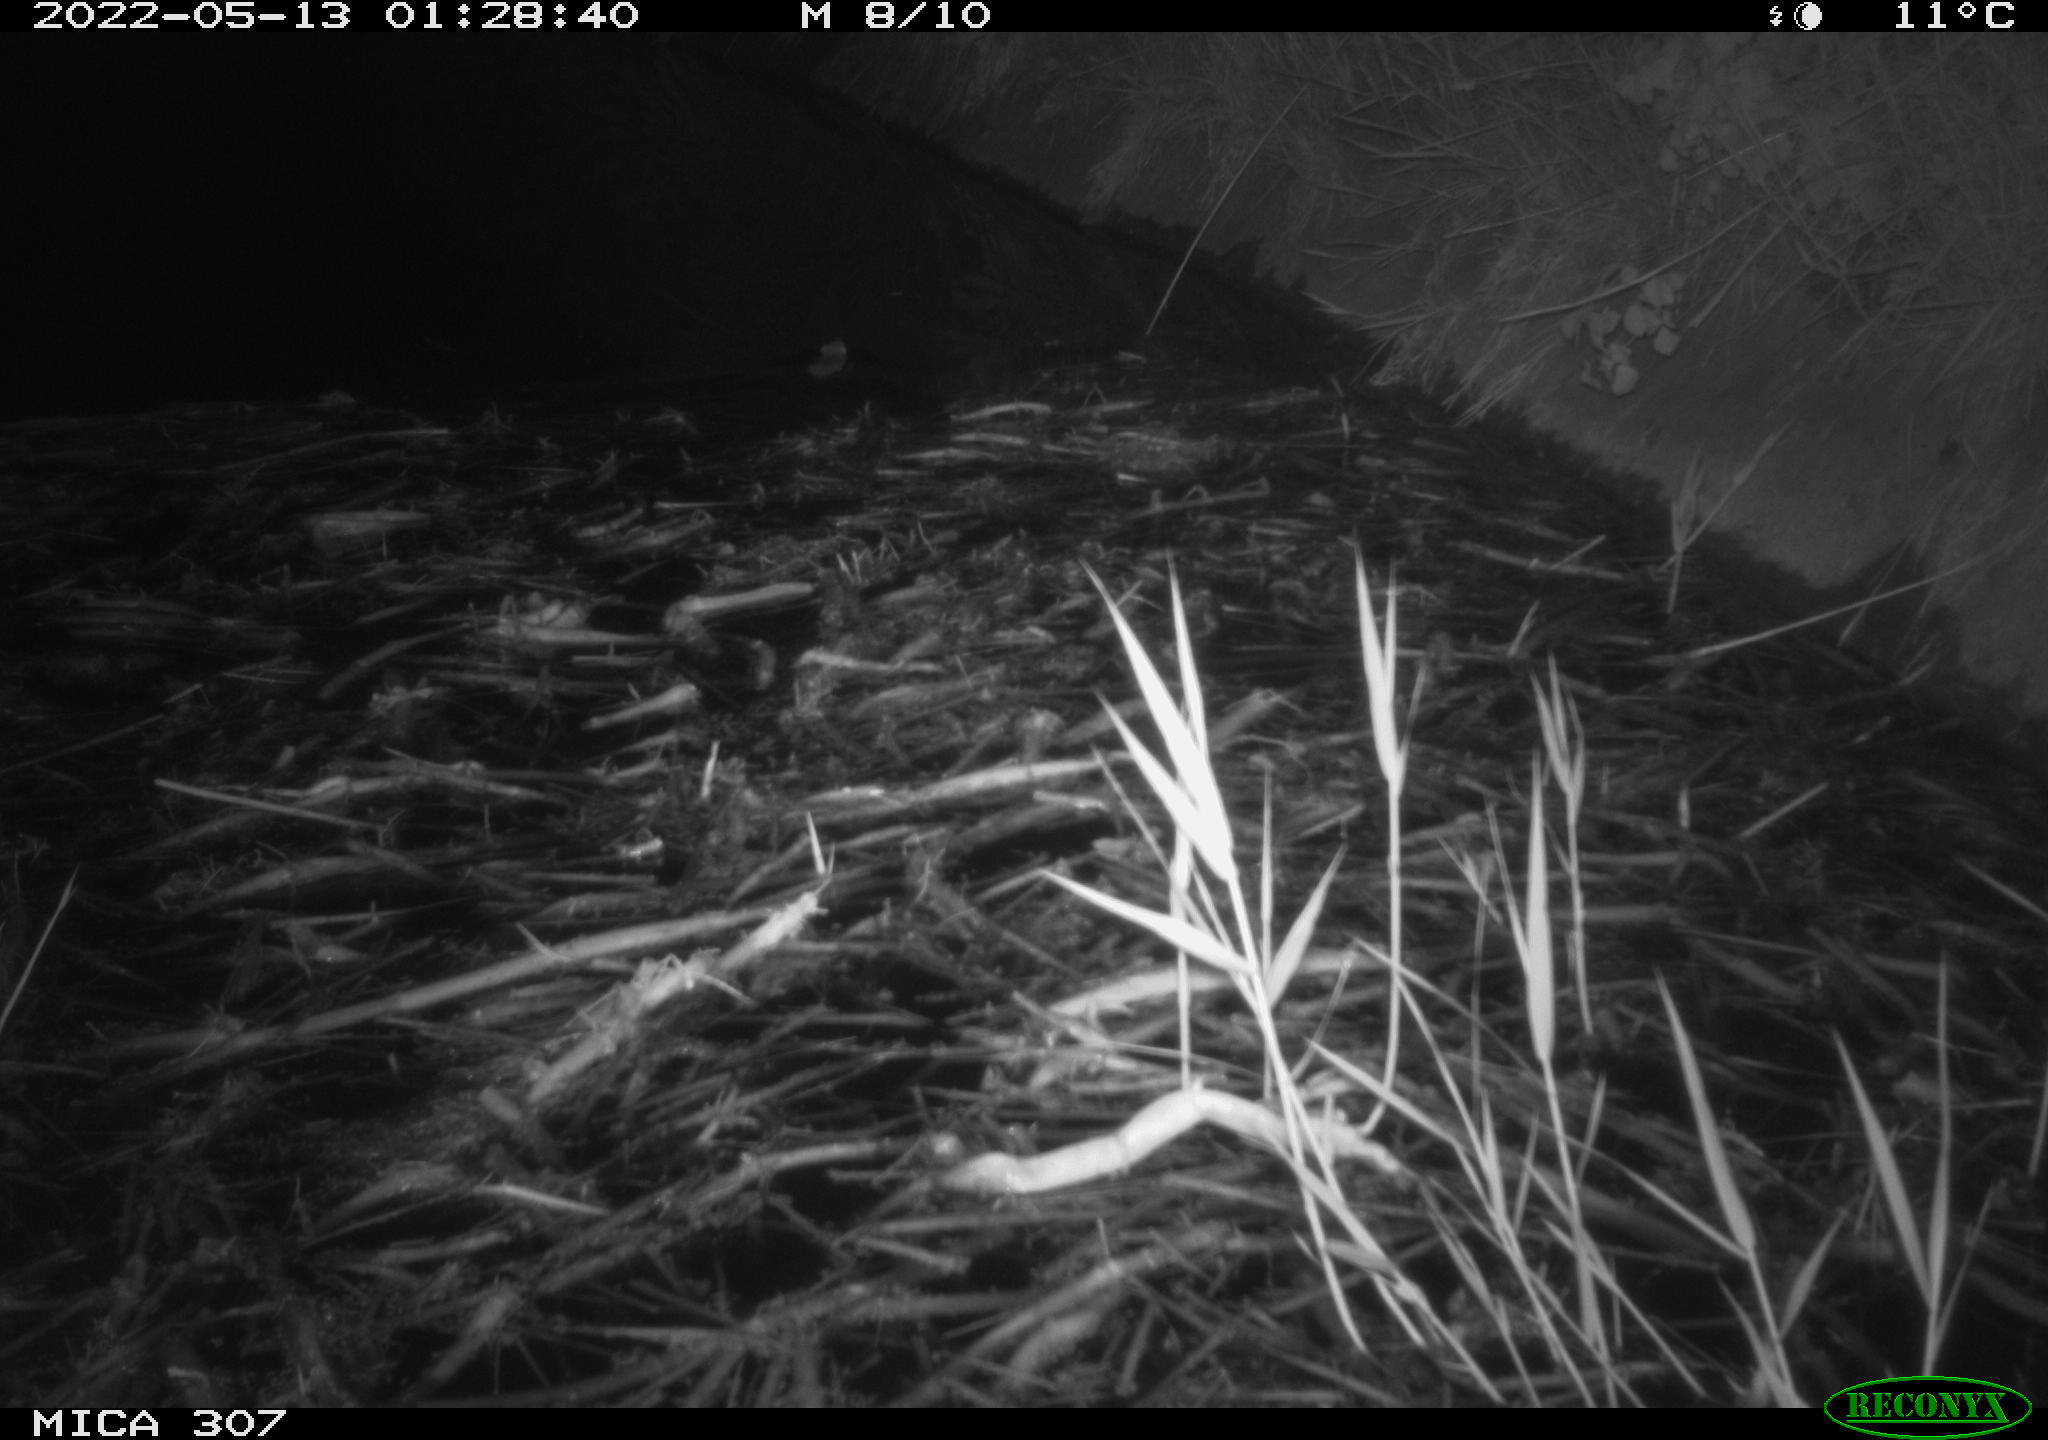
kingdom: Animalia
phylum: Chordata
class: Mammalia
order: Rodentia
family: Muridae
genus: Rattus
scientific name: Rattus norvegicus
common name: Brown rat
